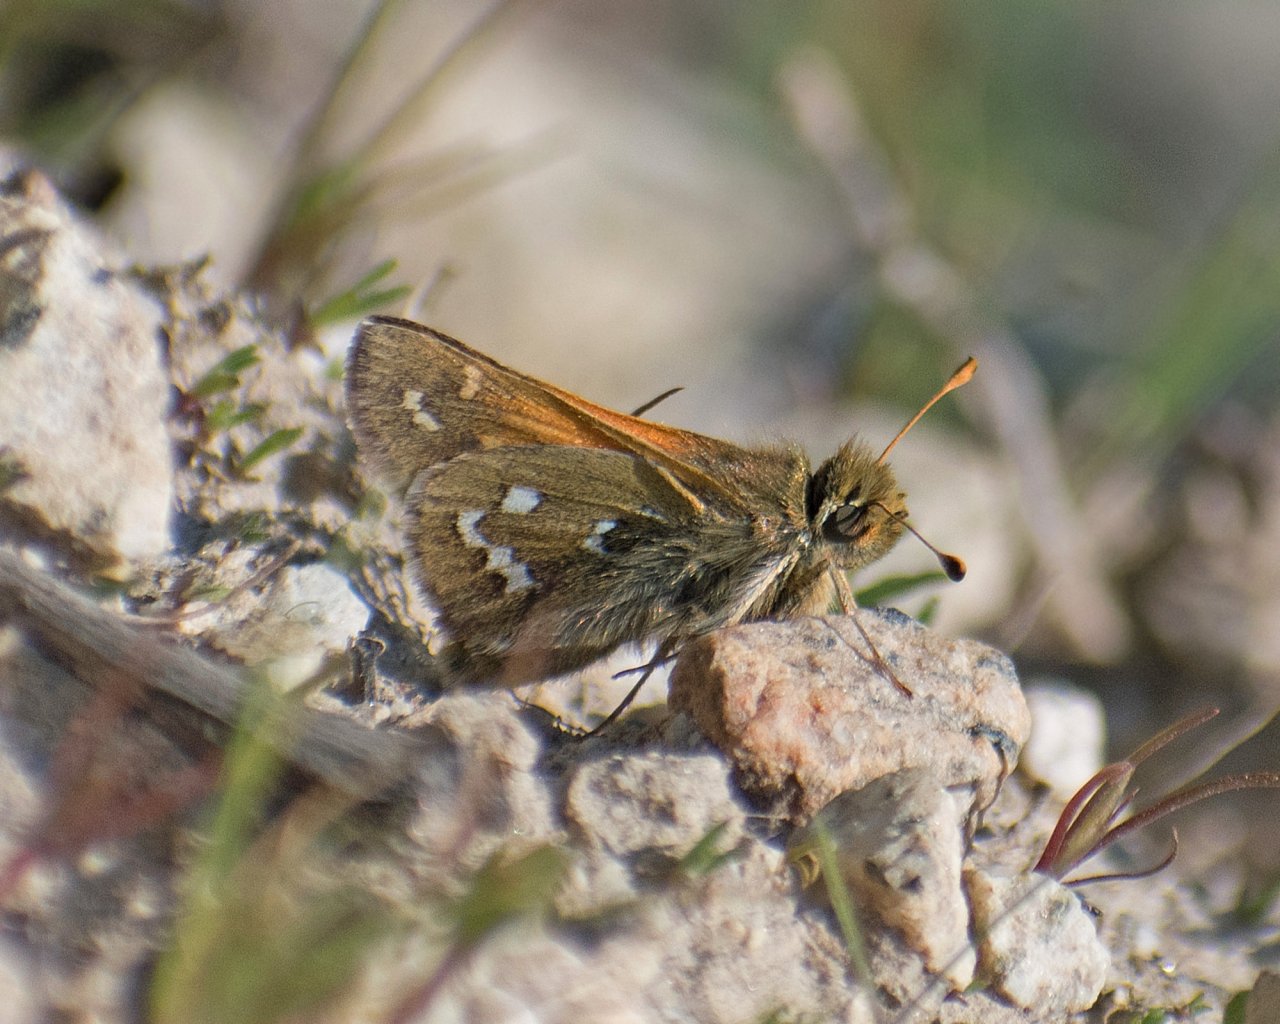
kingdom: Animalia
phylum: Arthropoda
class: Insecta
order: Lepidoptera
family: Hesperiidae
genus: Hesperia
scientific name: Hesperia comma
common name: Common Branded Skipper
